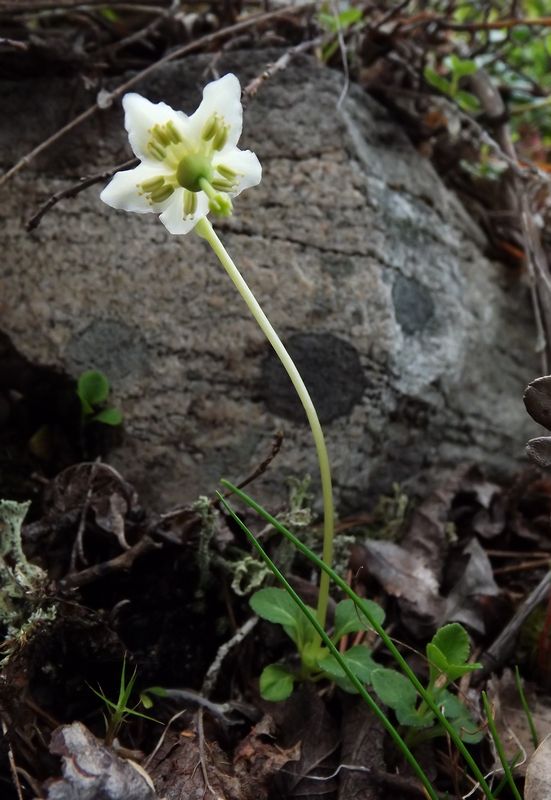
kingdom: Plantae
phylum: Tracheophyta
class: Magnoliopsida
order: Ericales
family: Ericaceae
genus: Moneses
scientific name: Moneses uniflora
